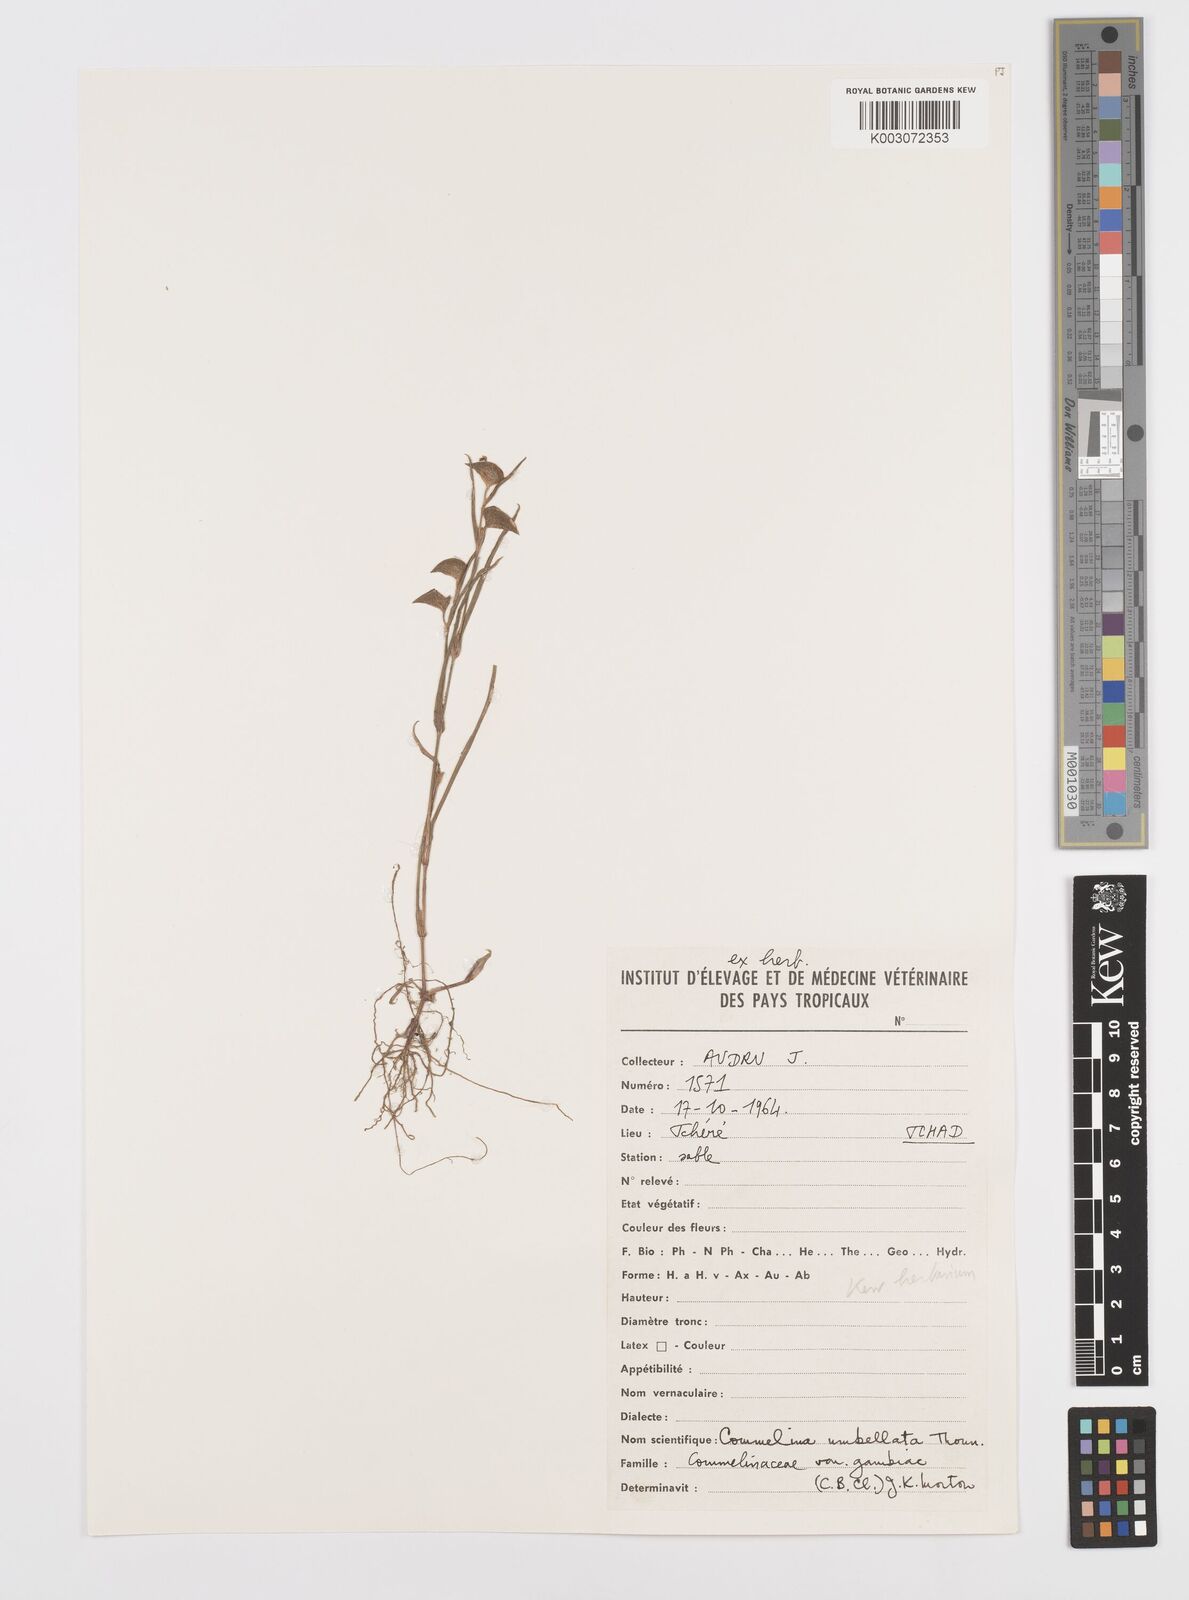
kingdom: Plantae
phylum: Tracheophyta
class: Liliopsida
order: Commelinales
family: Commelinaceae
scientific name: Commelinaceae
